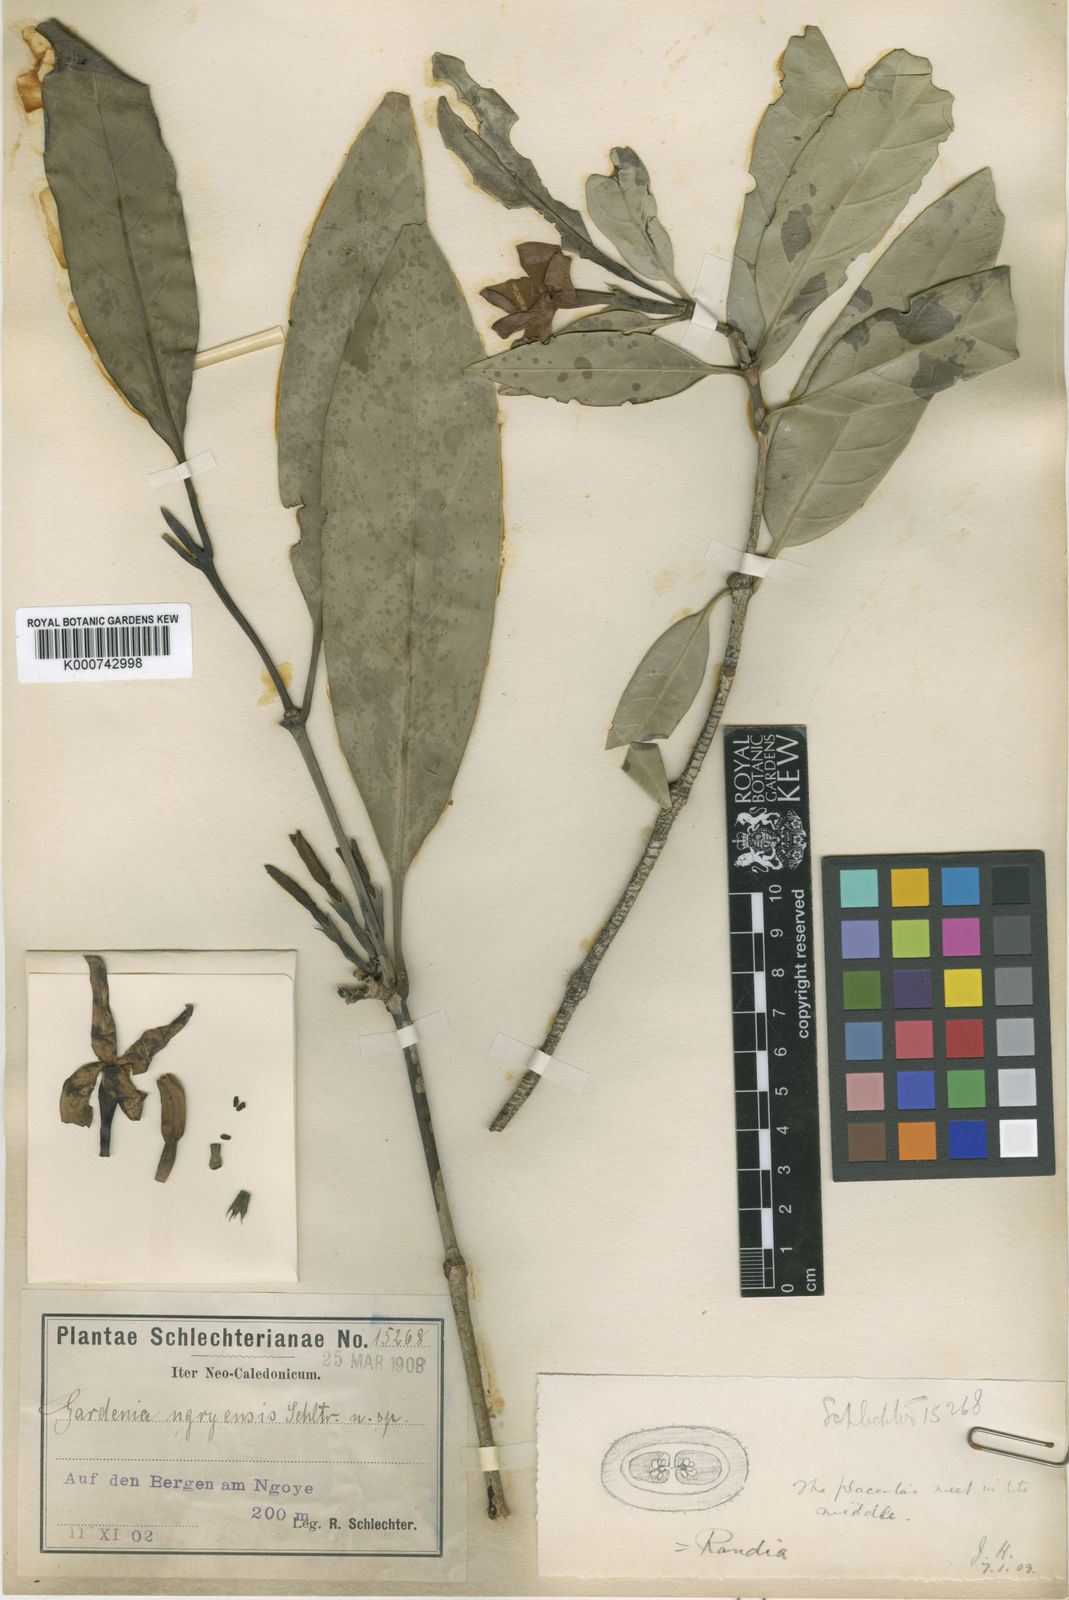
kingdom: Plantae
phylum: Tracheophyta
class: Magnoliopsida
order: Gentianales
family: Rubiaceae
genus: Atractocarpus
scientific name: Atractocarpus ngoyensis
